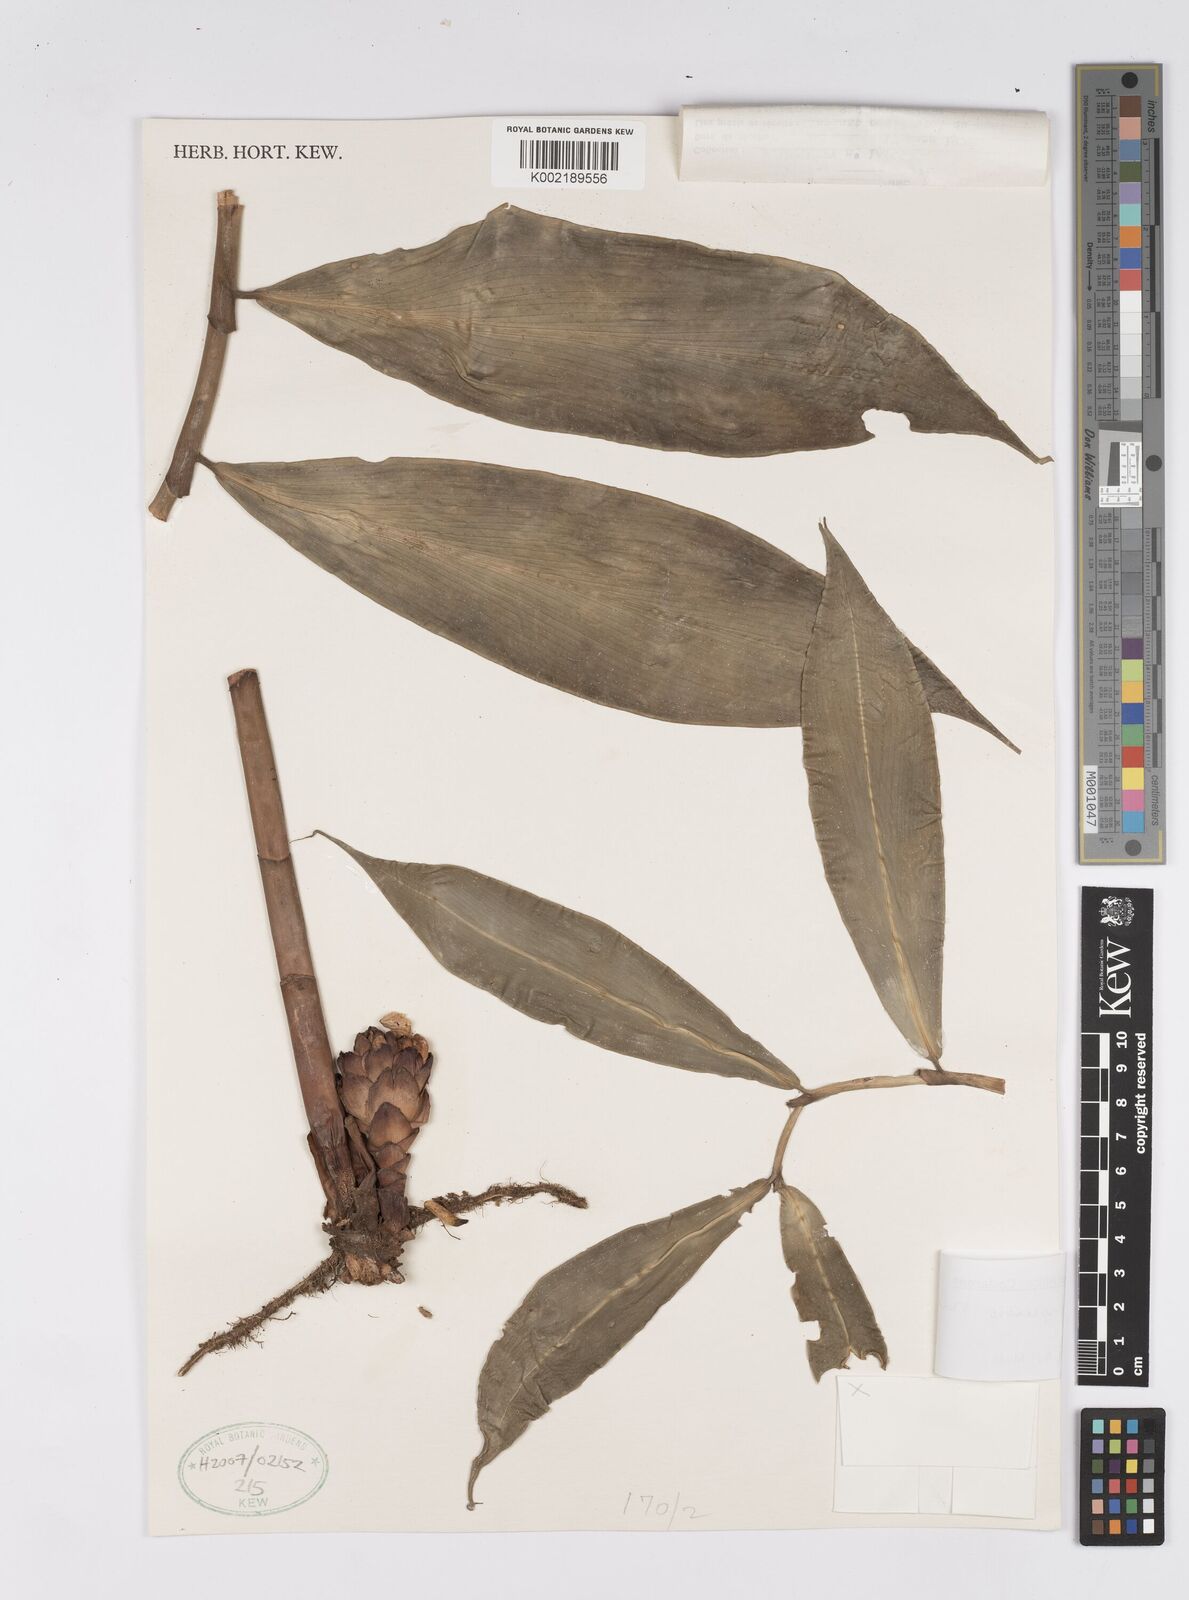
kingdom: Plantae
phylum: Tracheophyta
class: Liliopsida
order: Zingiberales
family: Costaceae
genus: Costus
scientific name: Costus kupensis
